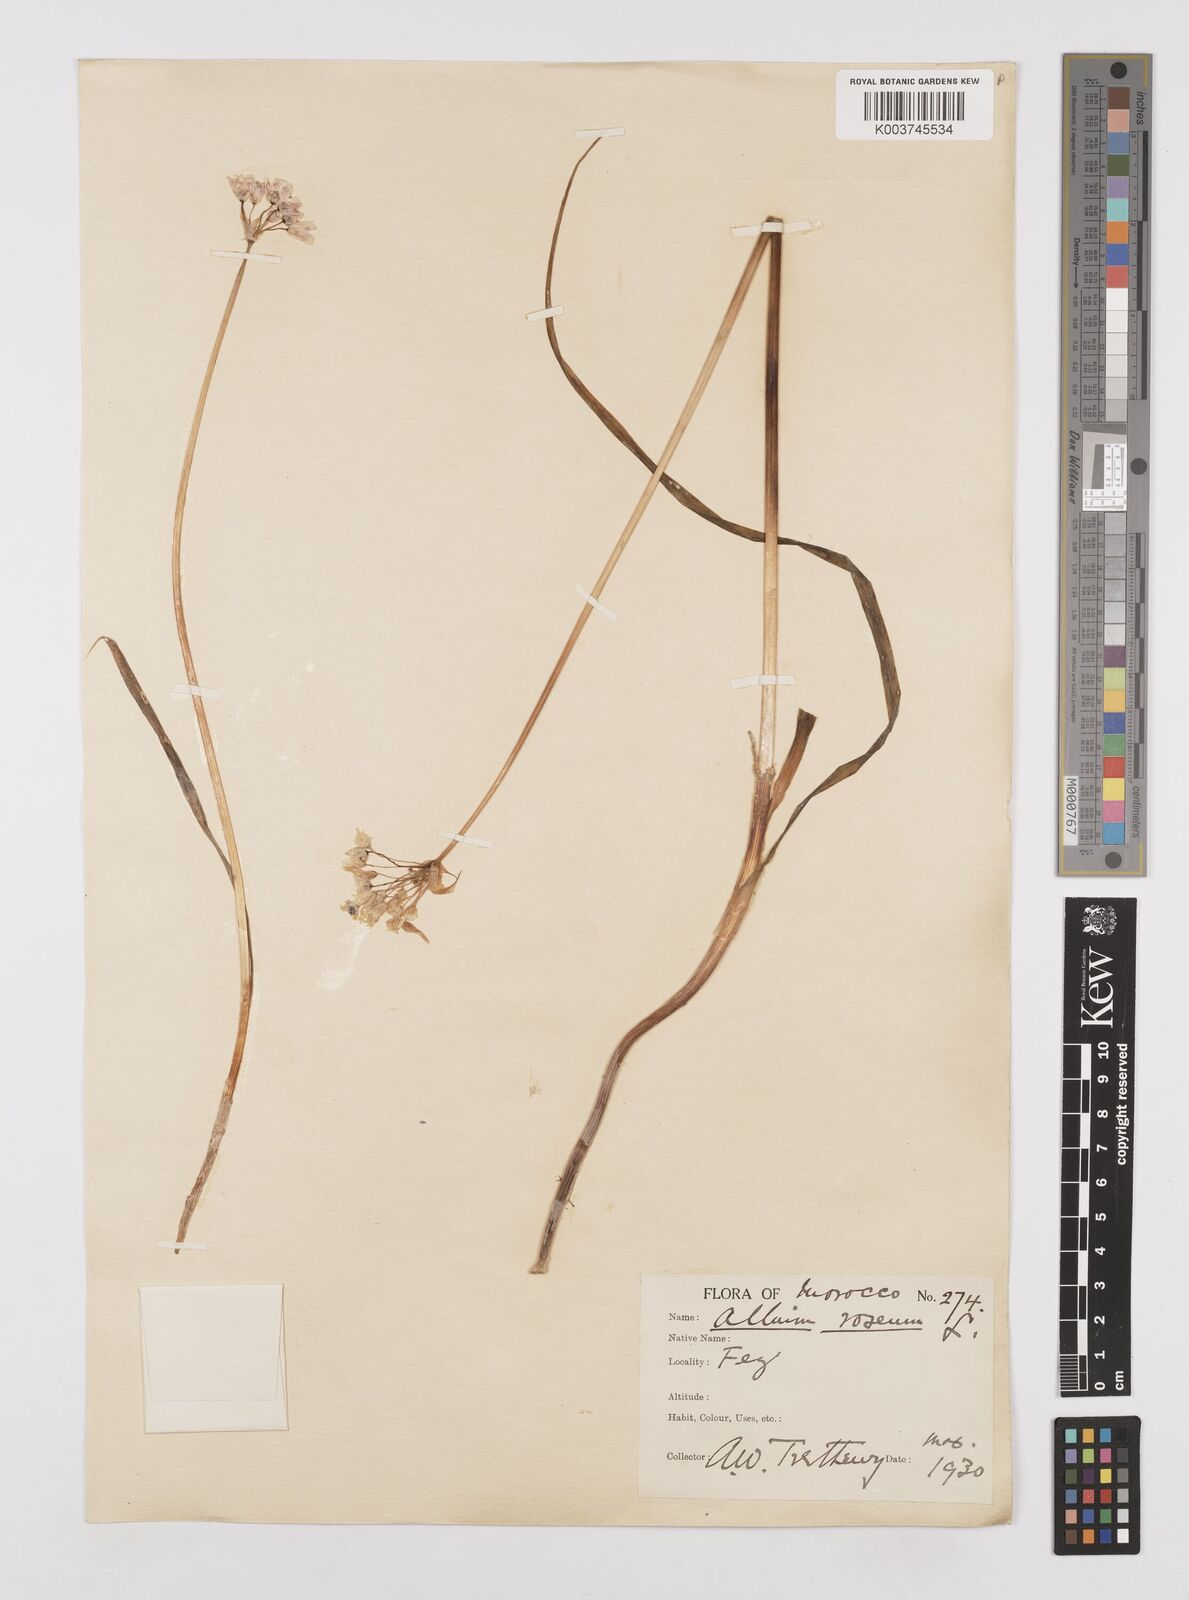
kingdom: Plantae
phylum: Tracheophyta
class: Liliopsida
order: Asparagales
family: Amaryllidaceae
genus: Allium
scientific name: Allium roseum
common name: Rosy garlic
